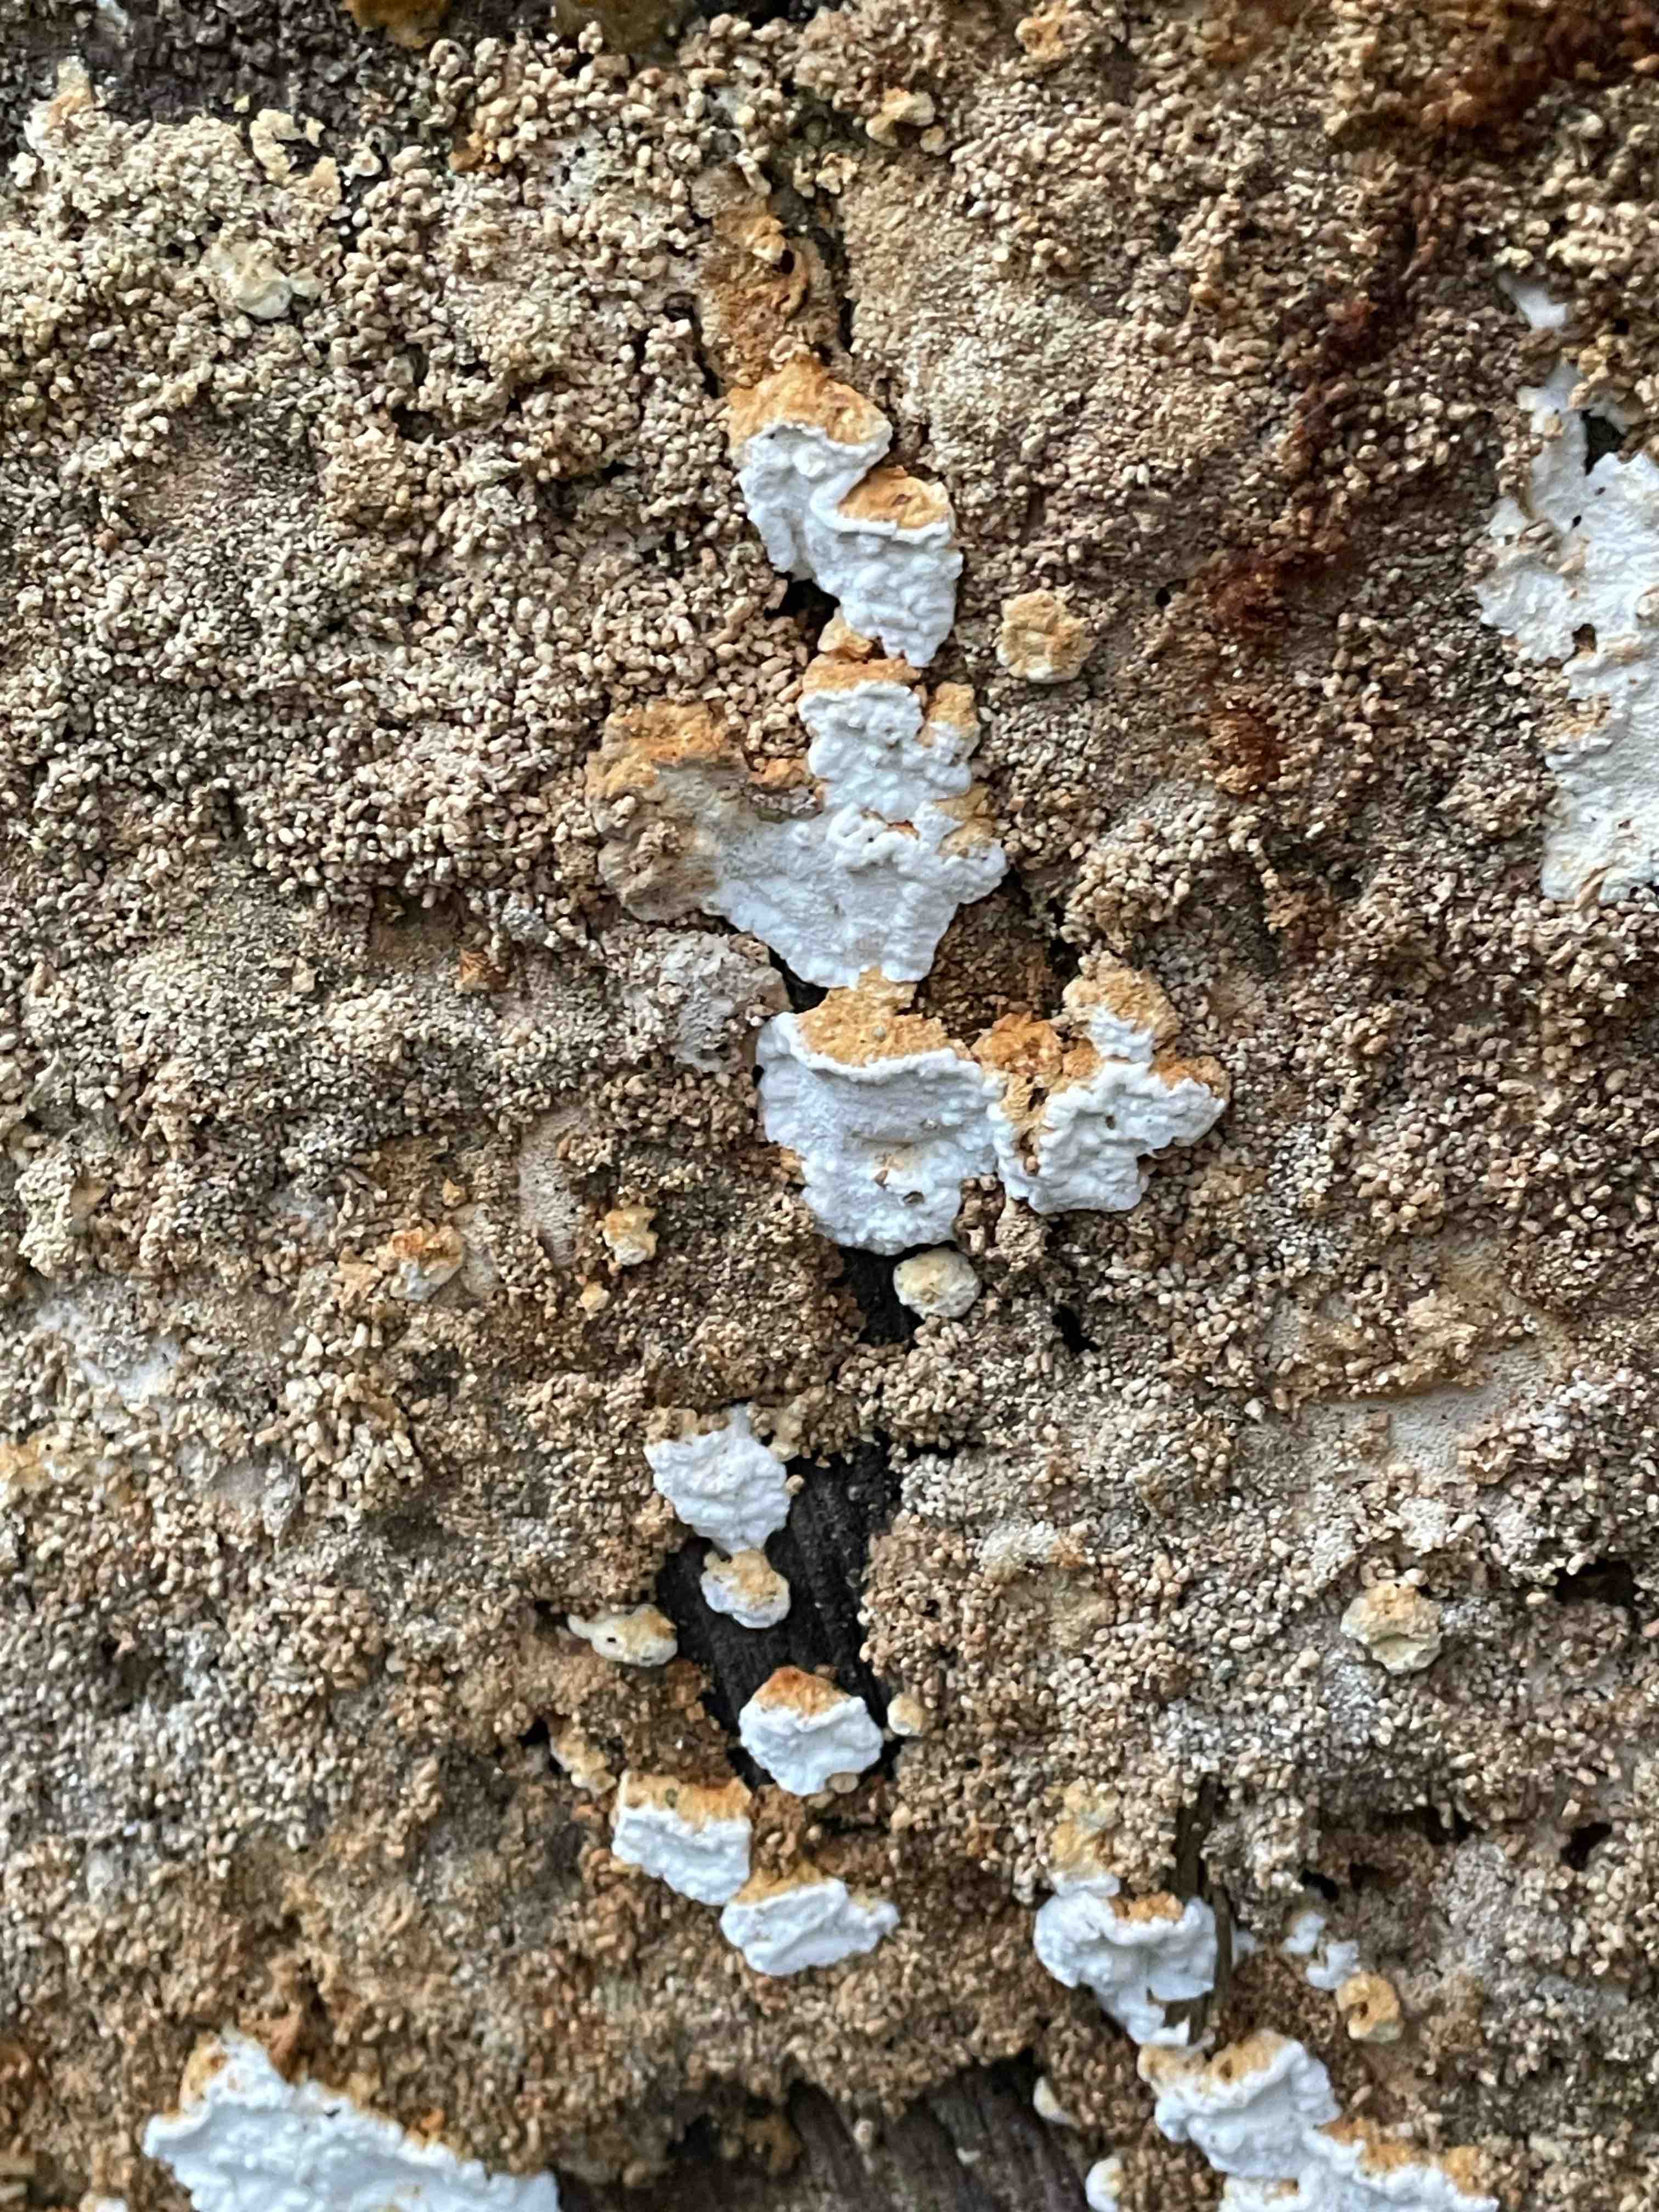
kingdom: Fungi
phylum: Basidiomycota
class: Agaricomycetes
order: Polyporales
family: Fomitopsidaceae
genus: Neoantrodia
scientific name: Neoantrodia serialis
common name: række-sejporesvamp
